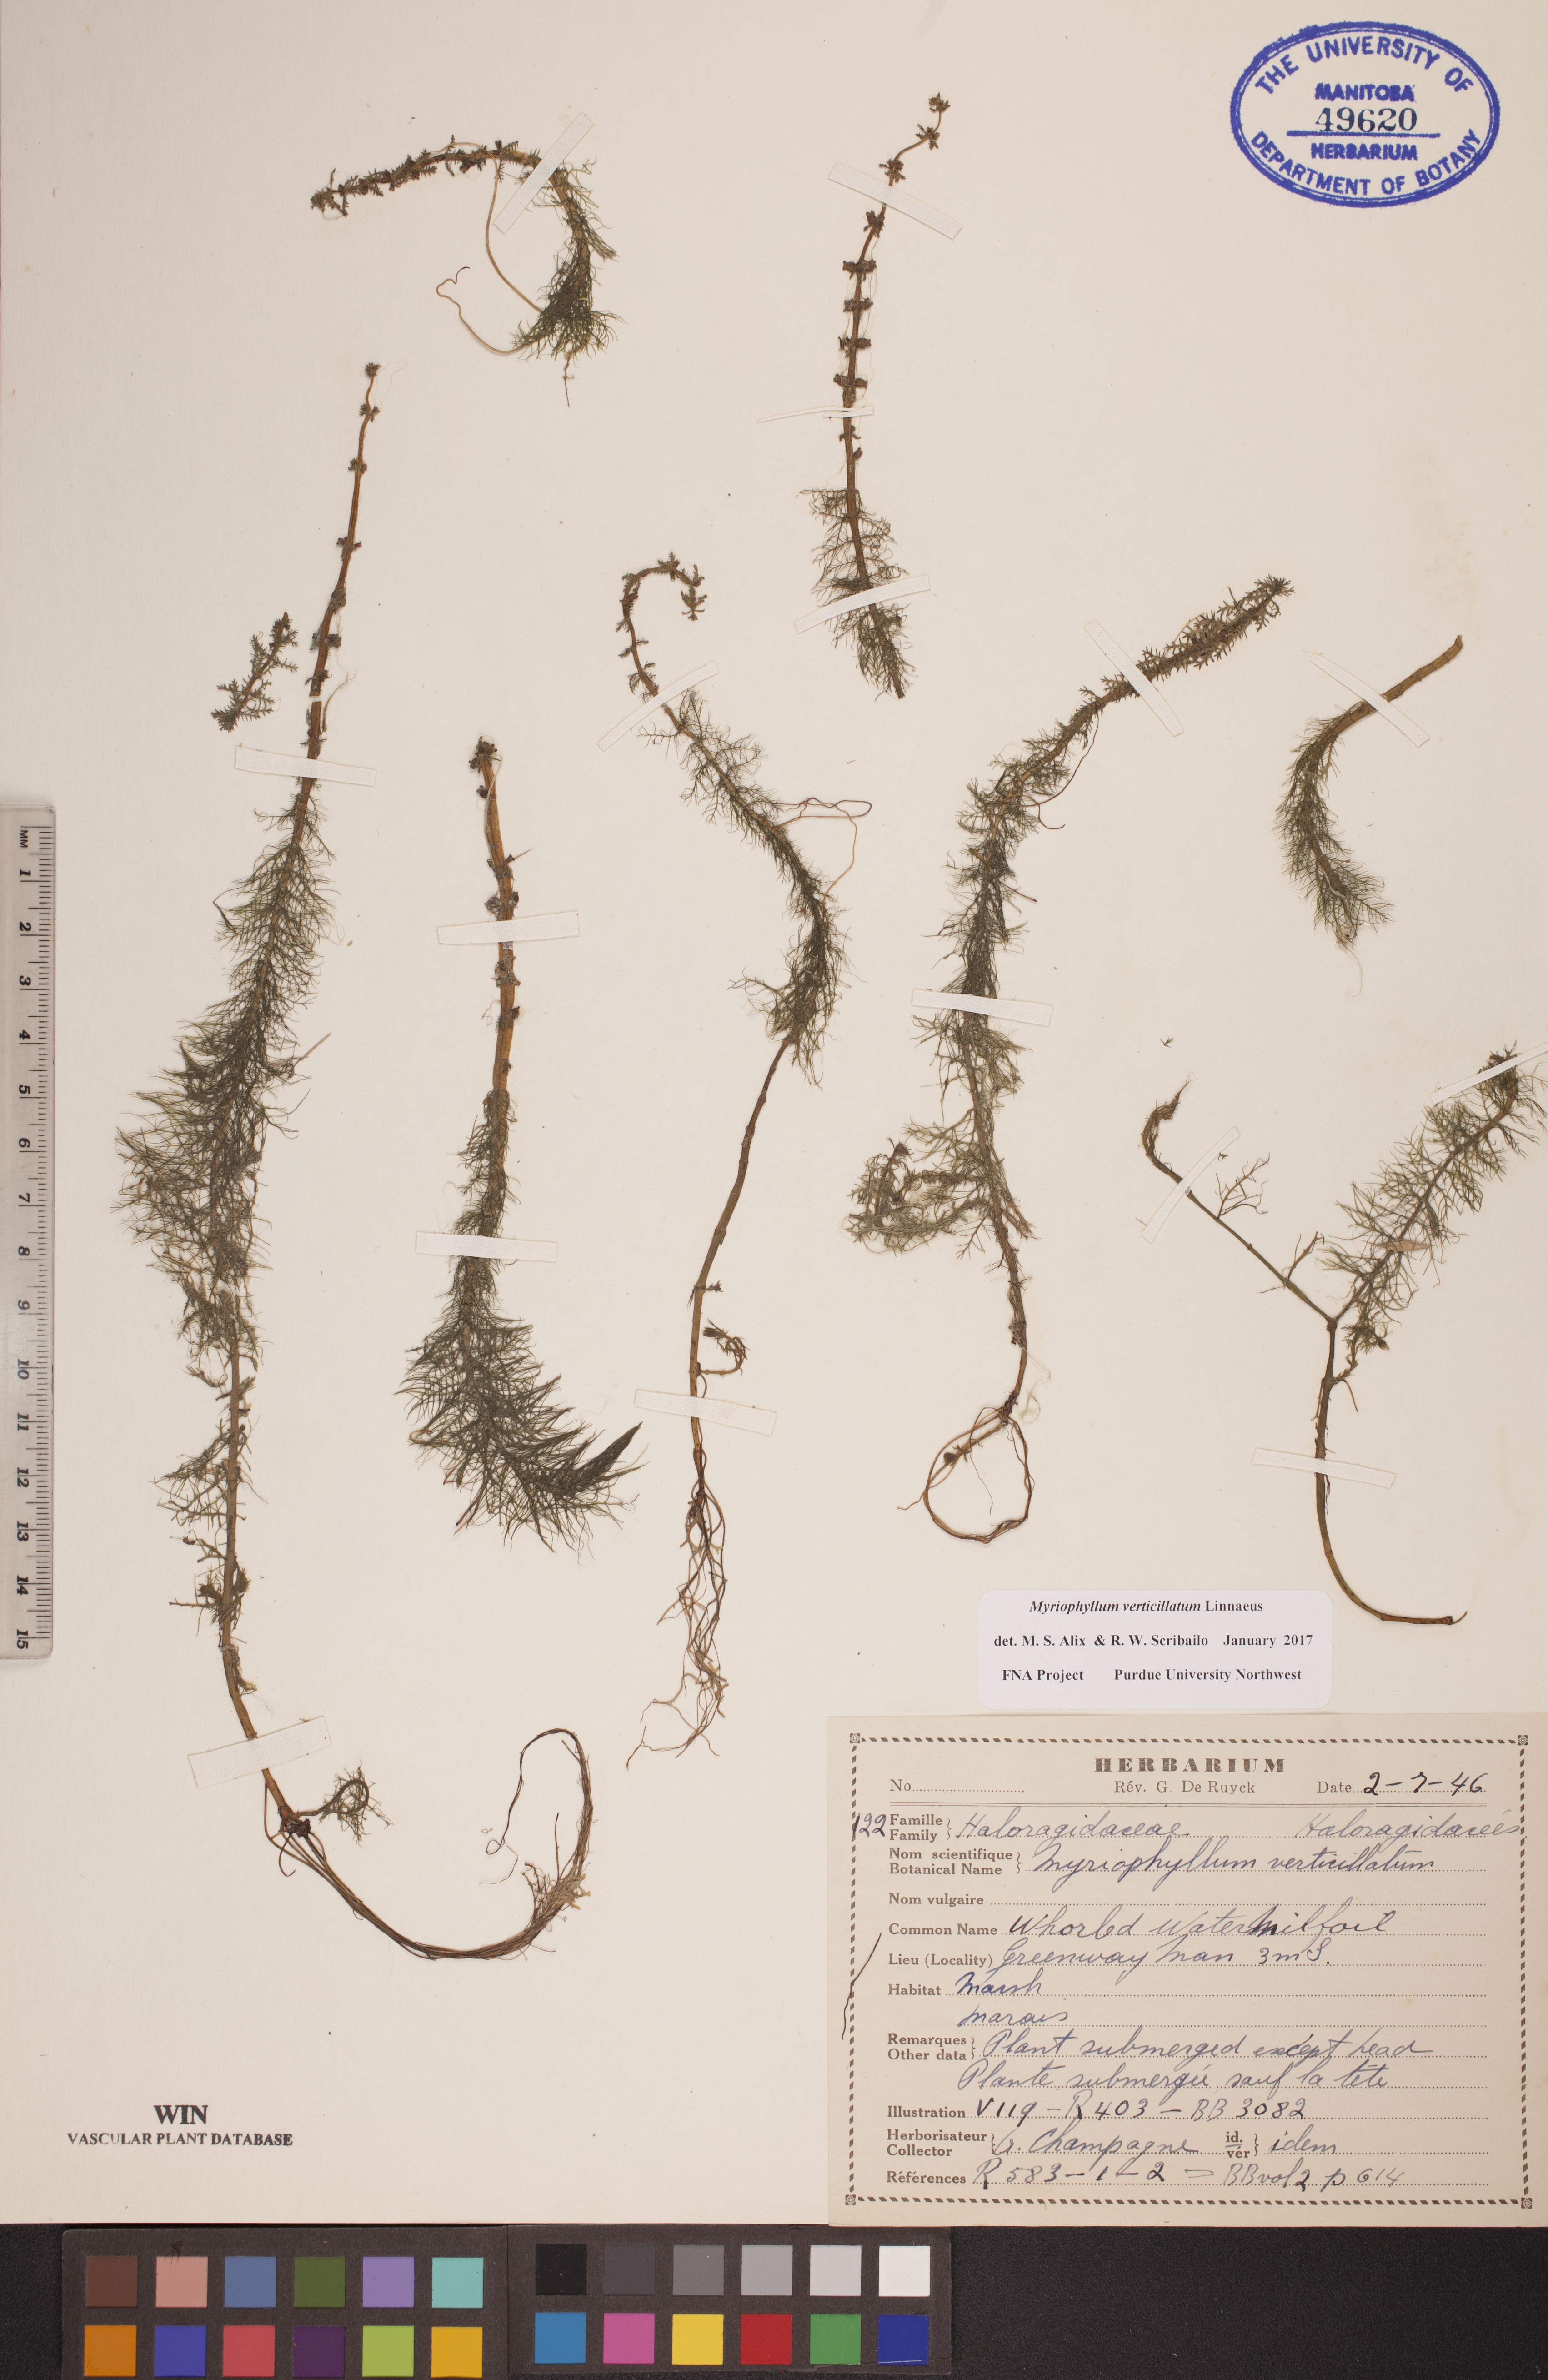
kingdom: Plantae
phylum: Tracheophyta
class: Magnoliopsida
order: Saxifragales
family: Haloragaceae
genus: Myriophyllum
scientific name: Myriophyllum verticillatum
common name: Whorled water-milfoil
